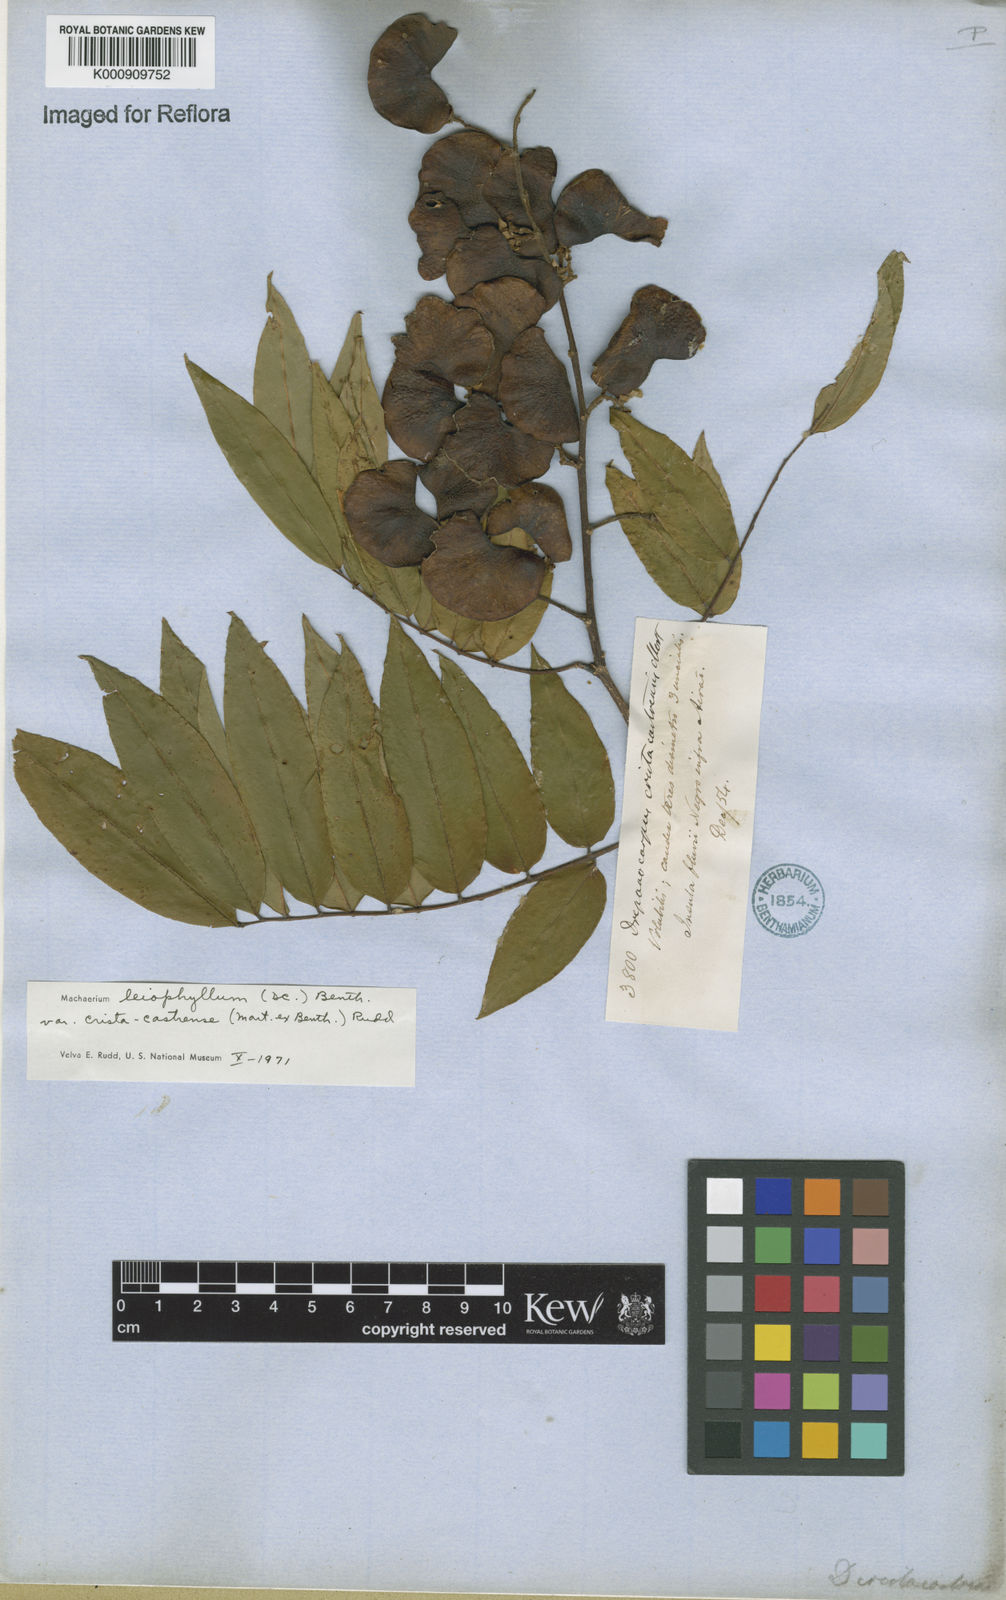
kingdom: Plantae
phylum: Tracheophyta
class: Magnoliopsida
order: Fabales
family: Fabaceae
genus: Machaerium
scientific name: Machaerium leiophyllum
